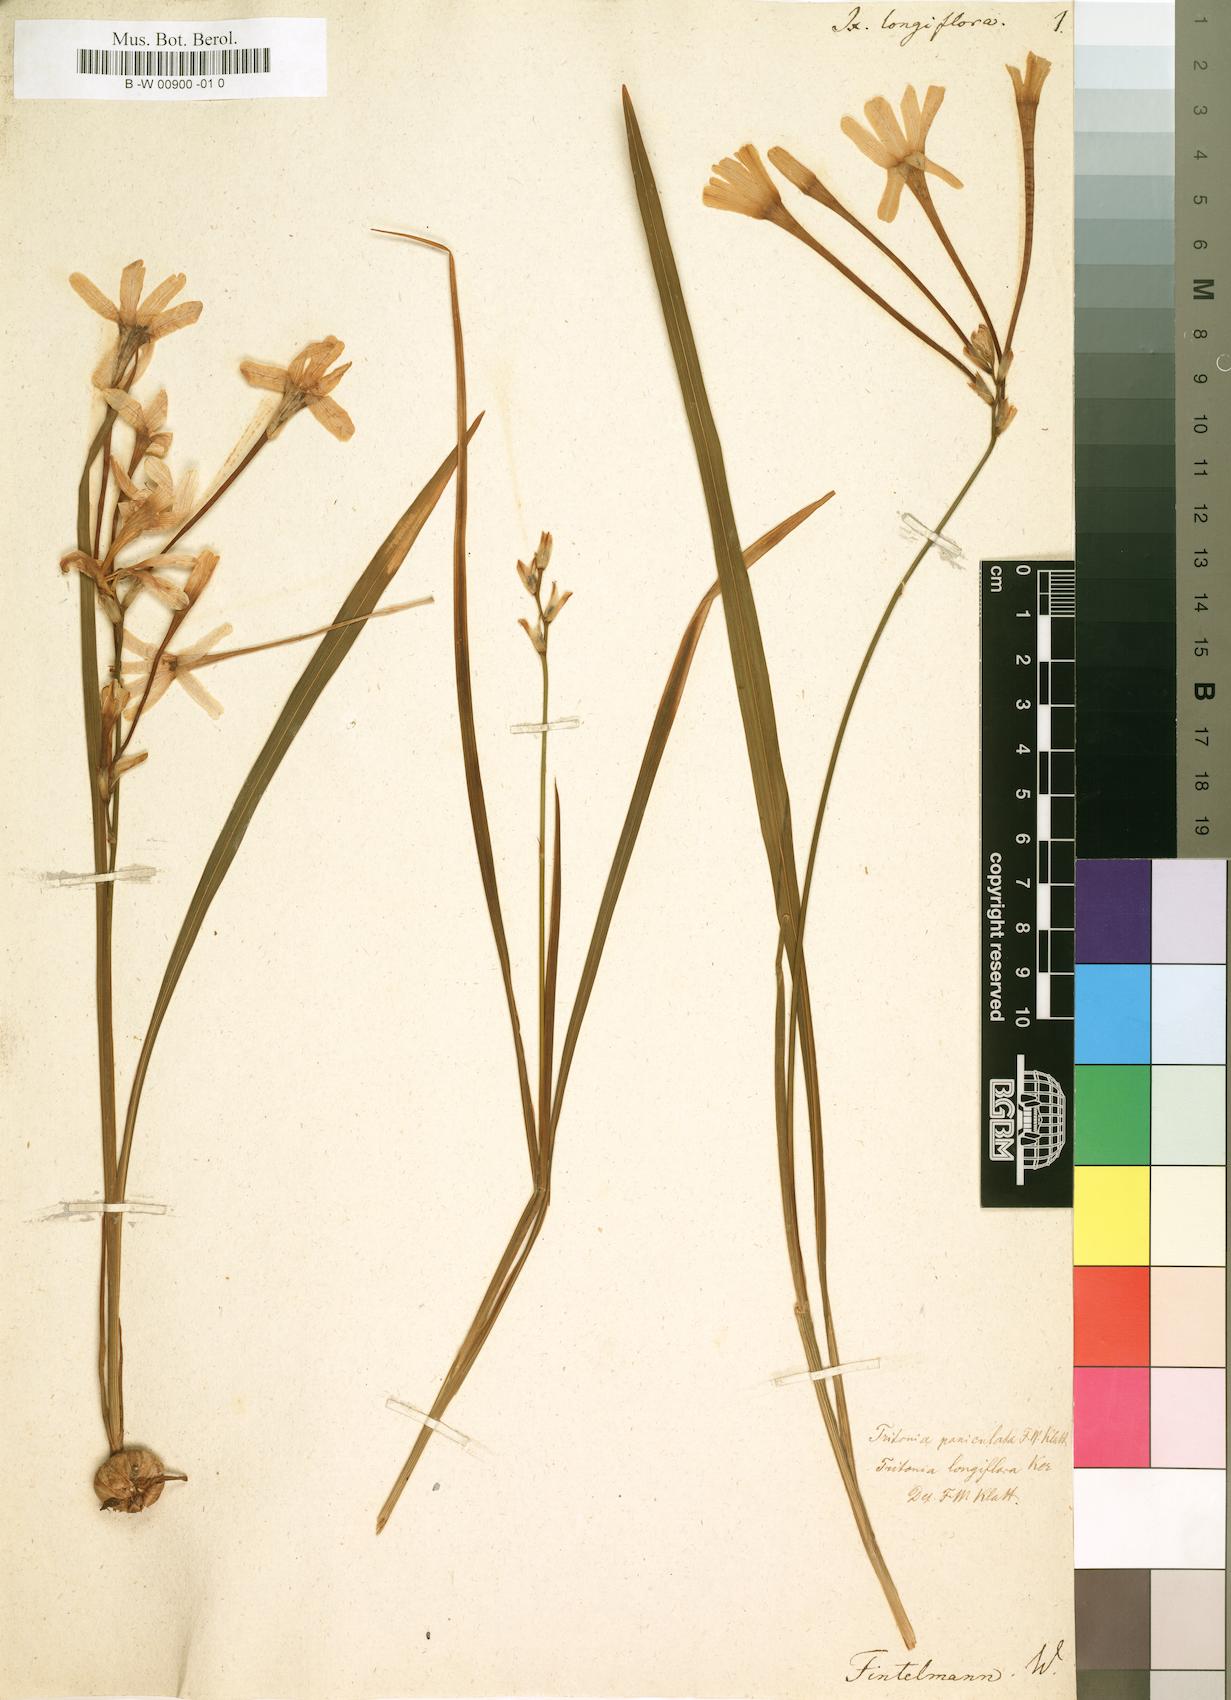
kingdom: Plantae
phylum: Tracheophyta
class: Liliopsida
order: Asparagales
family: Iridaceae
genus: Ixia
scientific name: Ixia paniculata
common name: Tubular corn-lily
